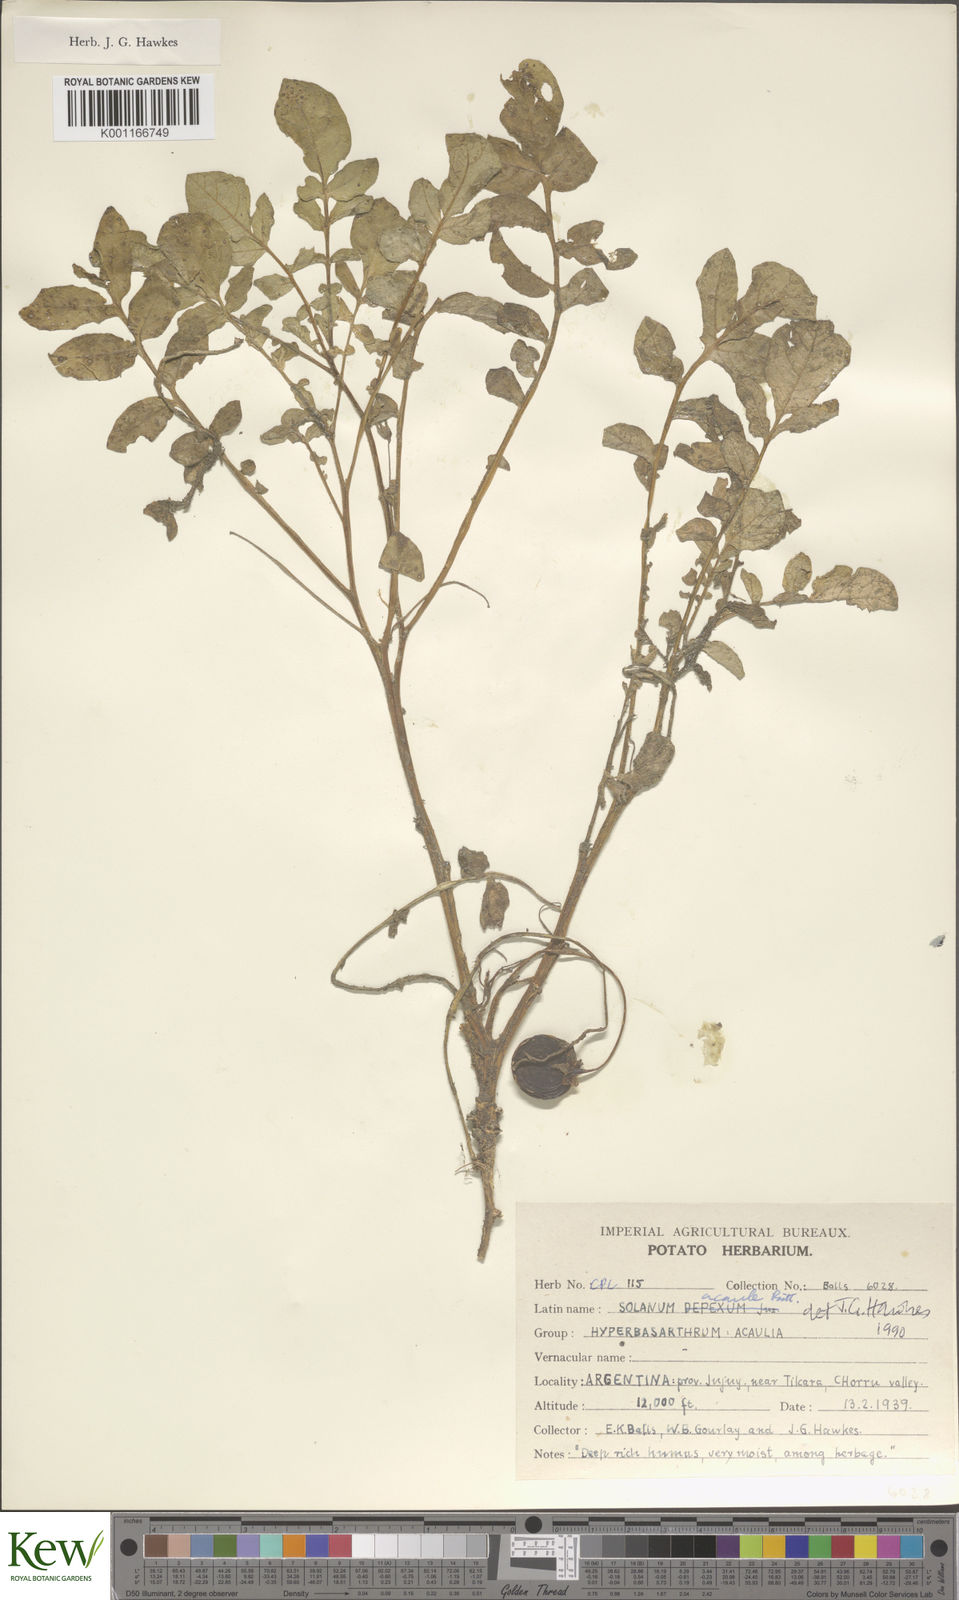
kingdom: Plantae
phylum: Tracheophyta
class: Magnoliopsida
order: Solanales
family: Solanaceae
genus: Solanum
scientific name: Solanum acaule
